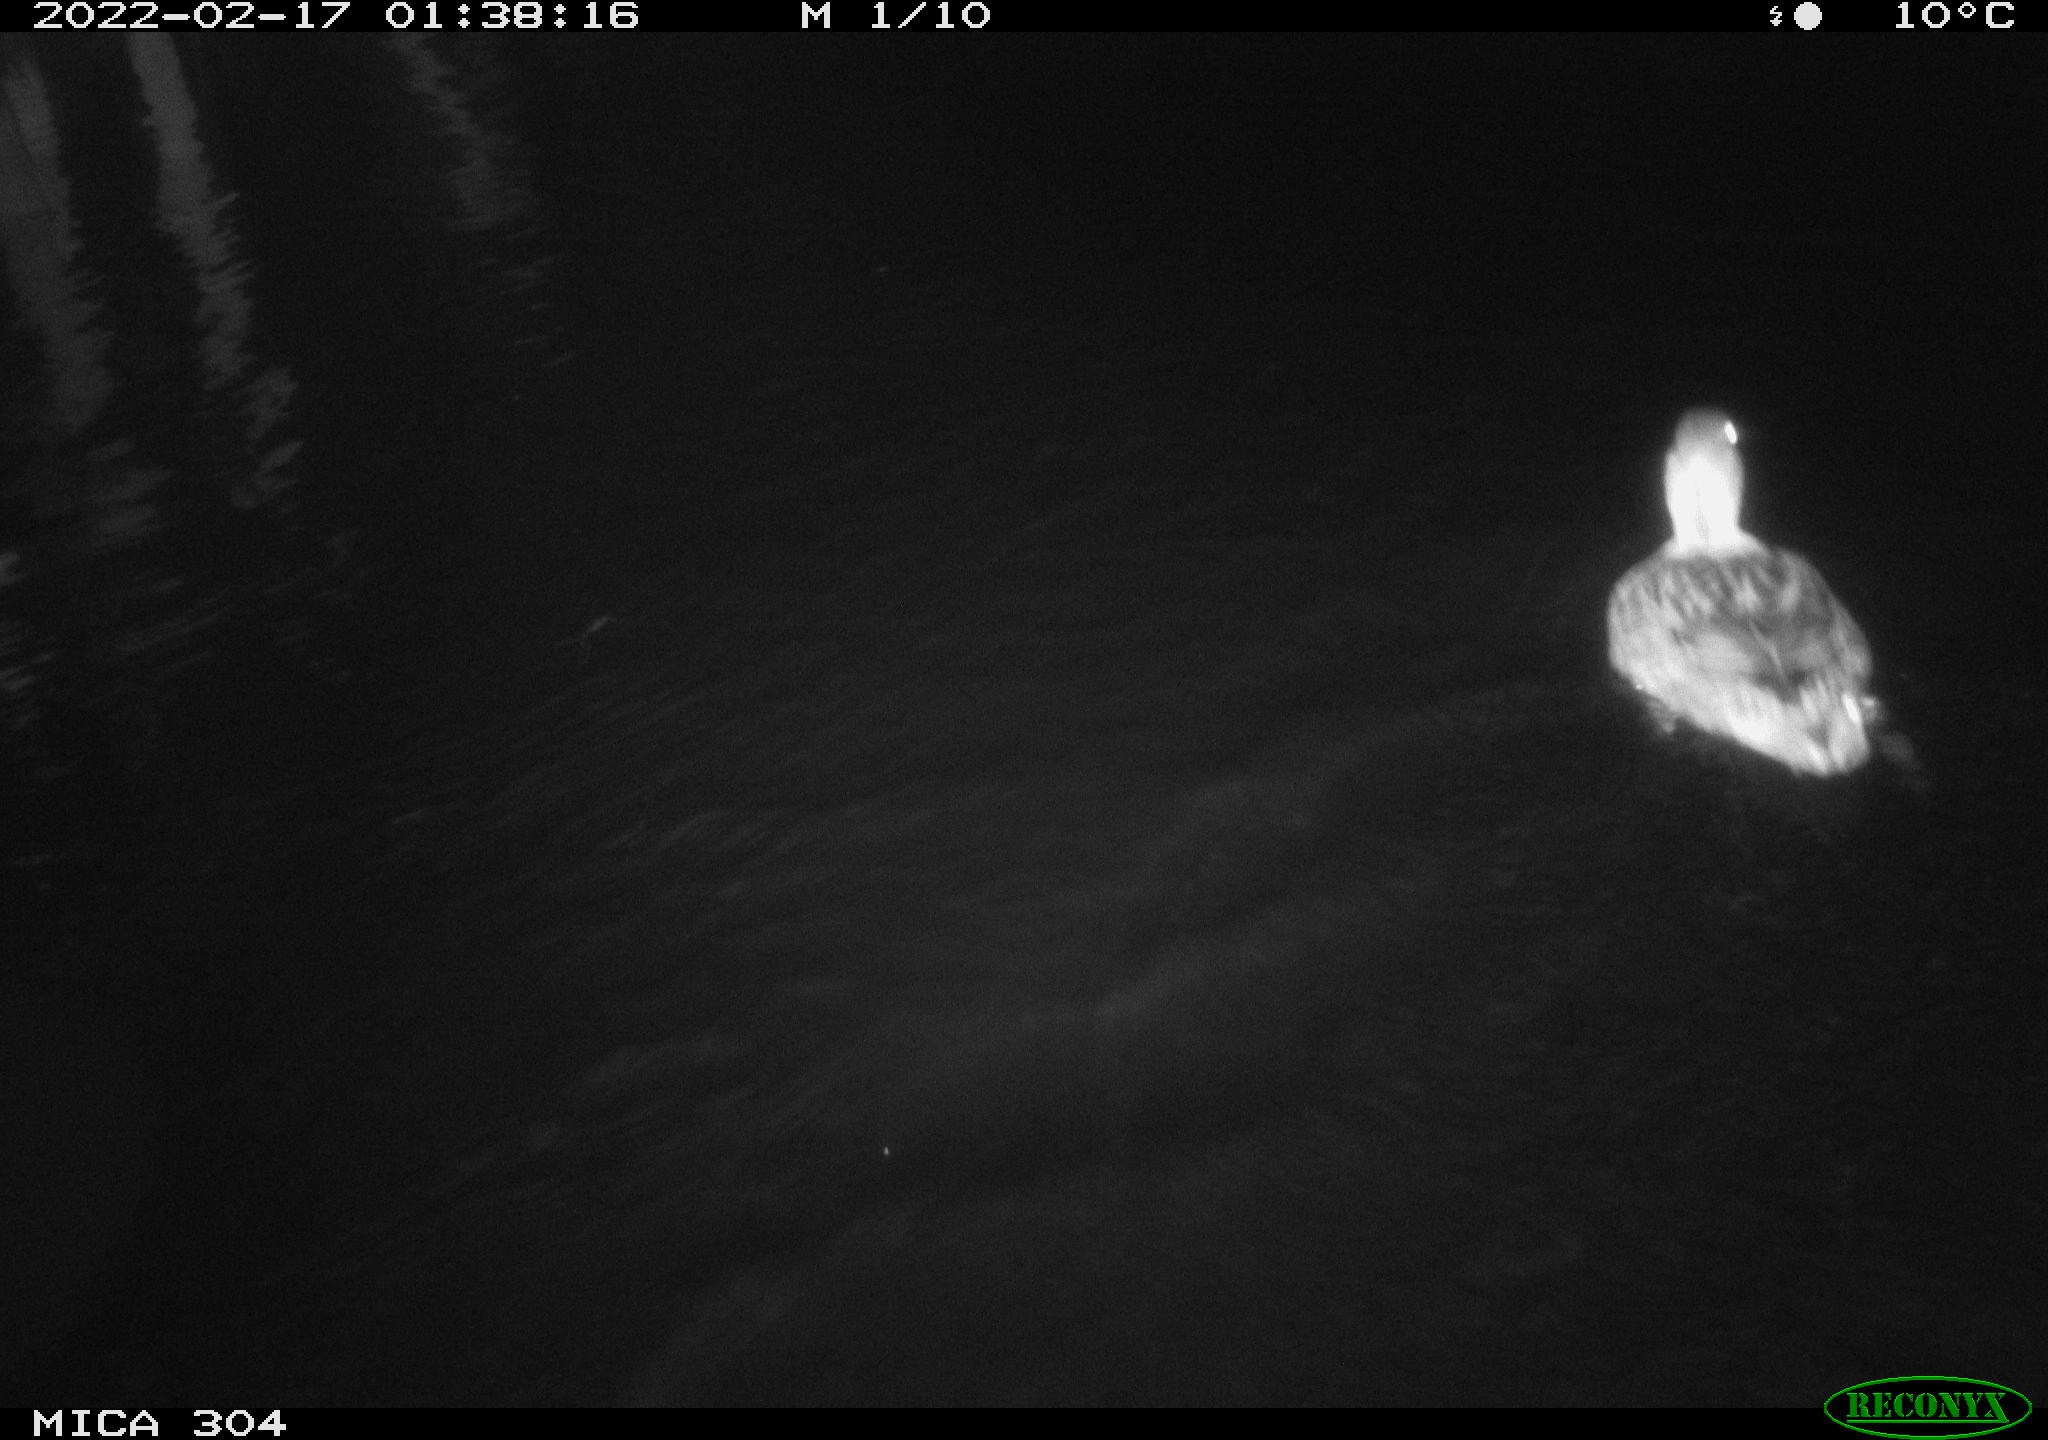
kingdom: Animalia
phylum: Chordata
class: Aves
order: Anseriformes
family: Anatidae
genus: Anas
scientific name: Anas platyrhynchos
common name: Mallard
